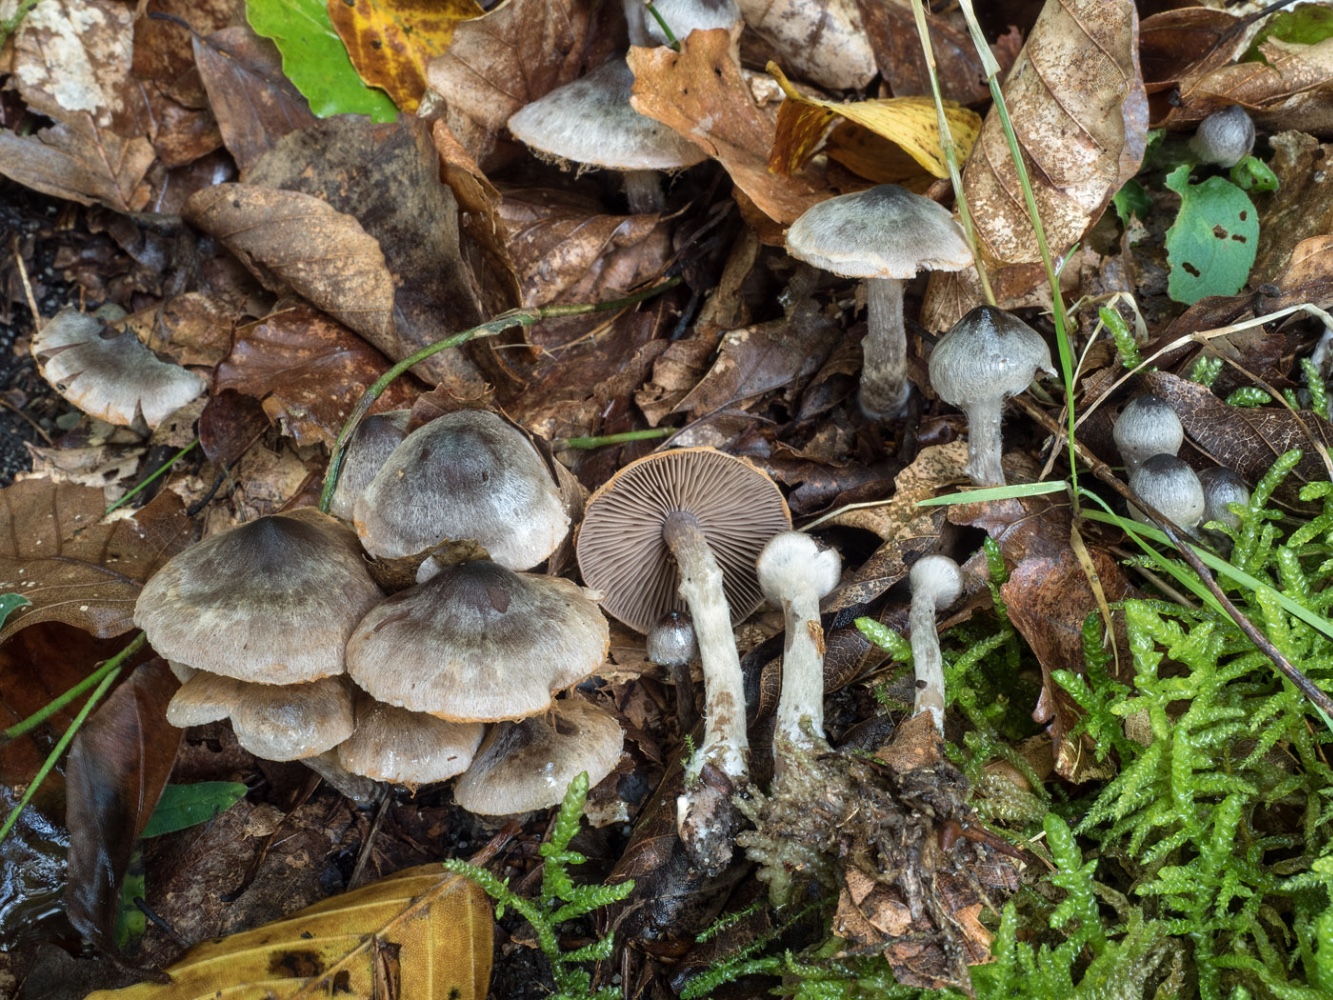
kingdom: Fungi
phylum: Basidiomycota
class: Agaricomycetes
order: Agaricales
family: Cortinariaceae
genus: Cortinarius
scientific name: Cortinarius
